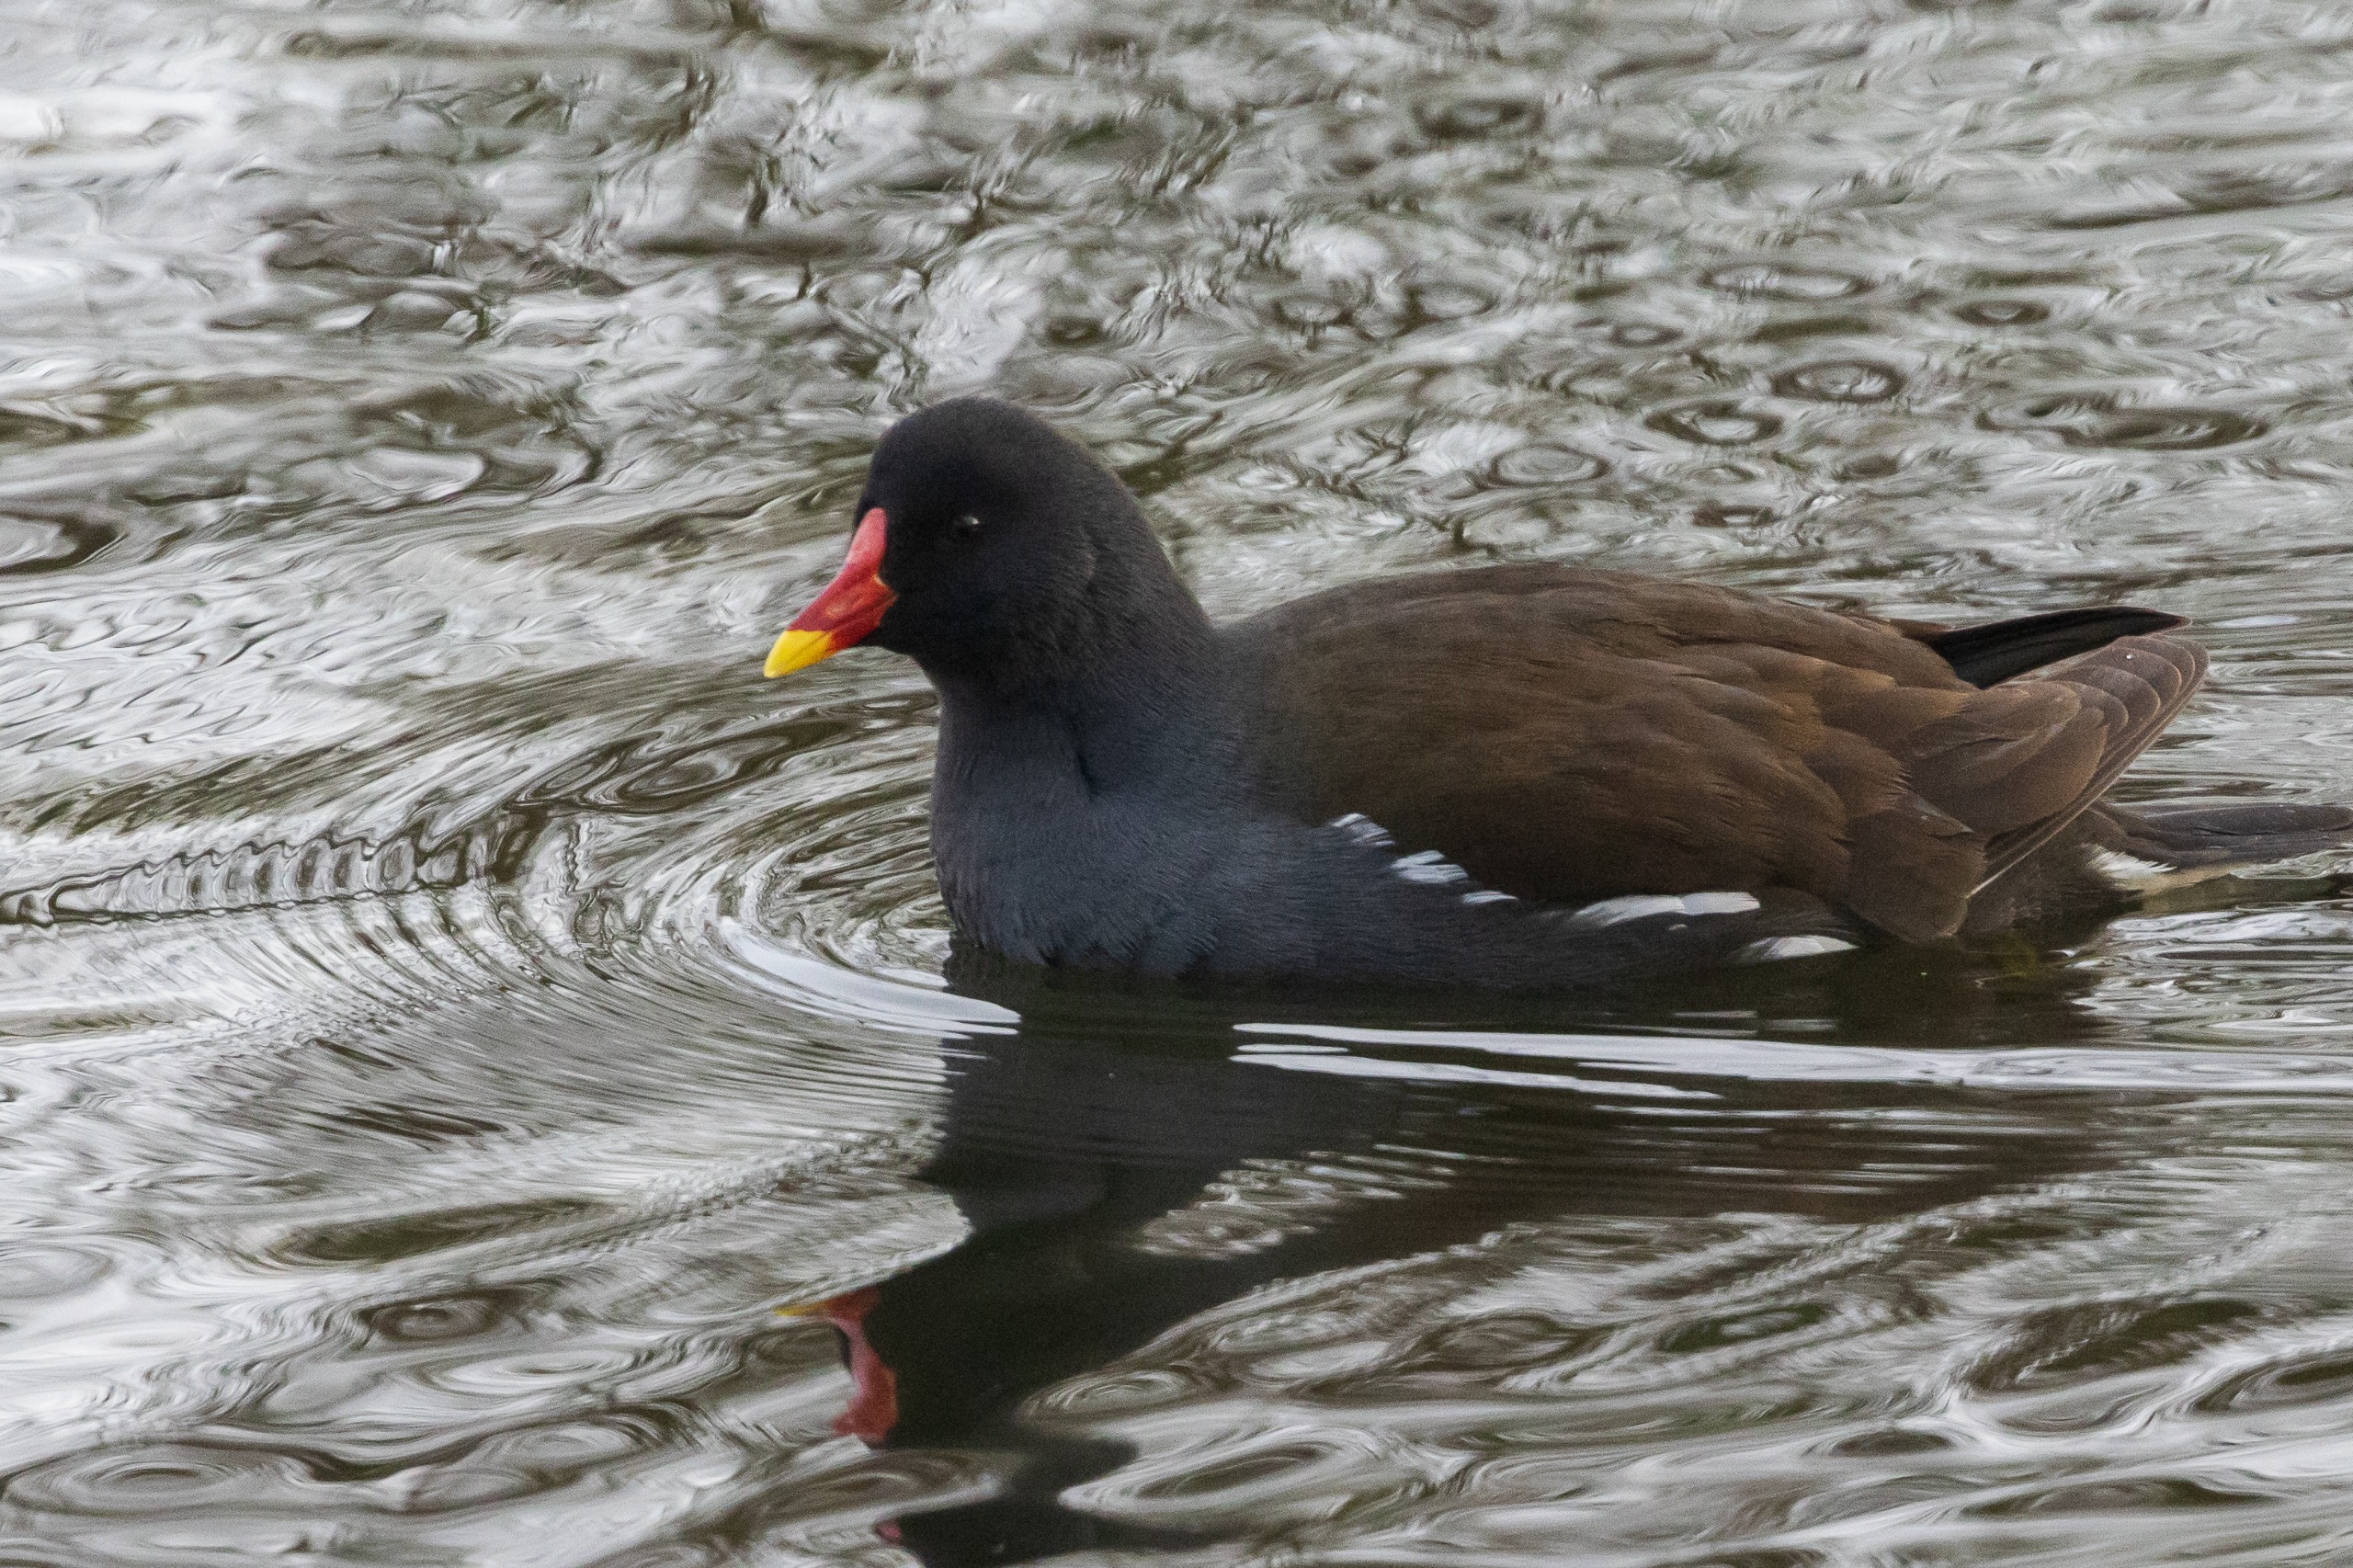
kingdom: Animalia
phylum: Chordata
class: Aves
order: Gruiformes
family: Rallidae
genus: Gallinula
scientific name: Gallinula chloropus
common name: Grønbenet rørhøne
